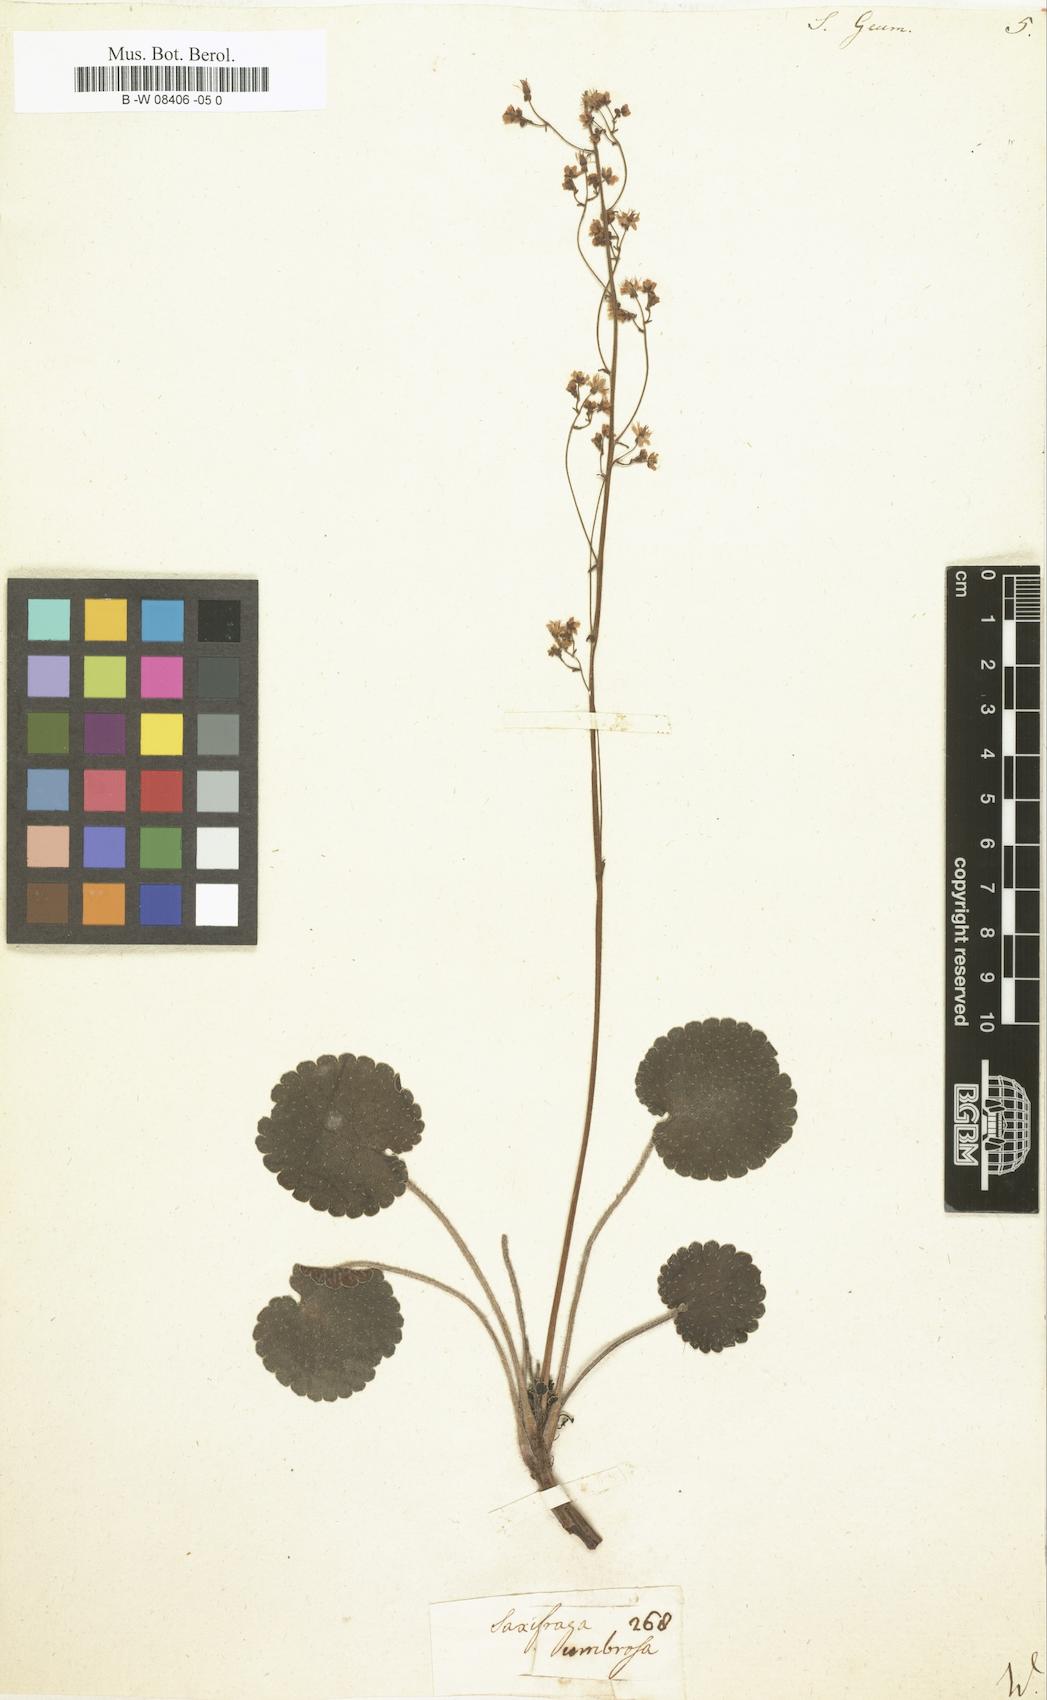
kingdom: Plantae
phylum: Tracheophyta
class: Magnoliopsida
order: Saxifragales
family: Saxifragaceae
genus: Saxifraga
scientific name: Saxifraga geum
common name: Geum saxifrage
